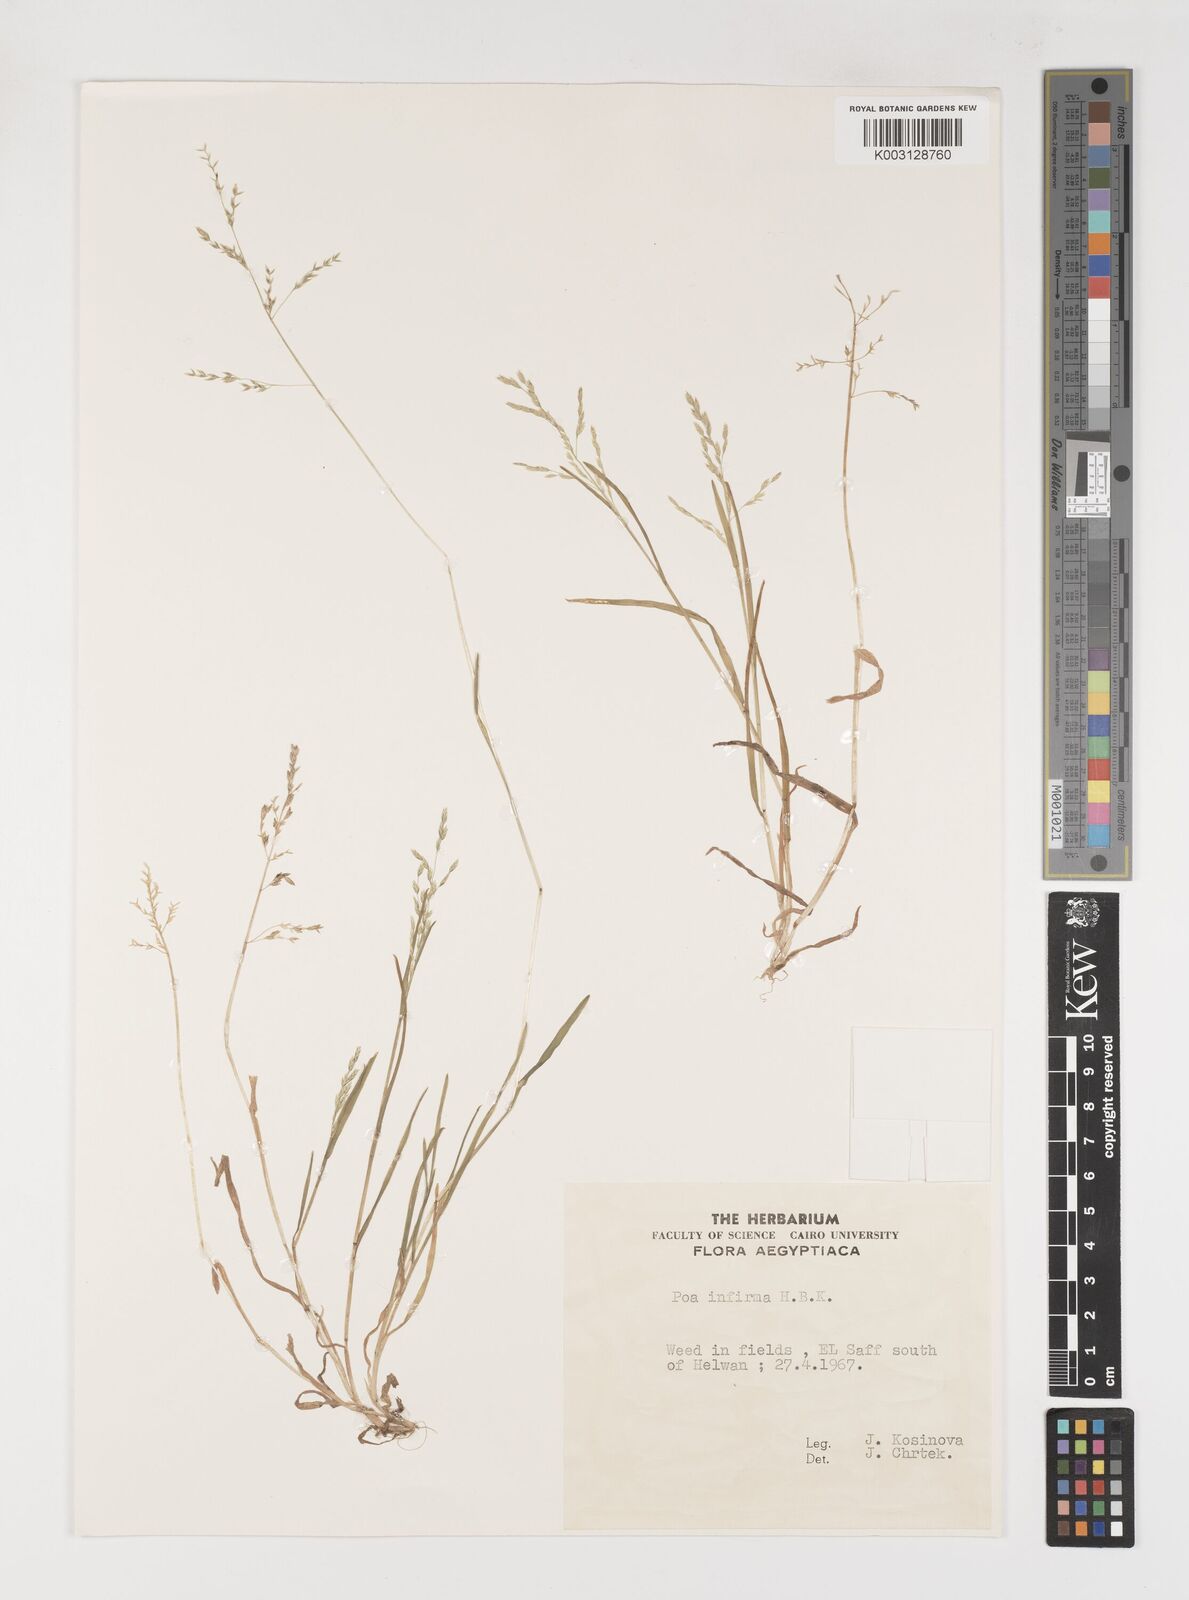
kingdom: Plantae
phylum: Tracheophyta
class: Liliopsida
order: Poales
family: Poaceae
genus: Poa
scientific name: Poa infirma
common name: Weak bluegrass
